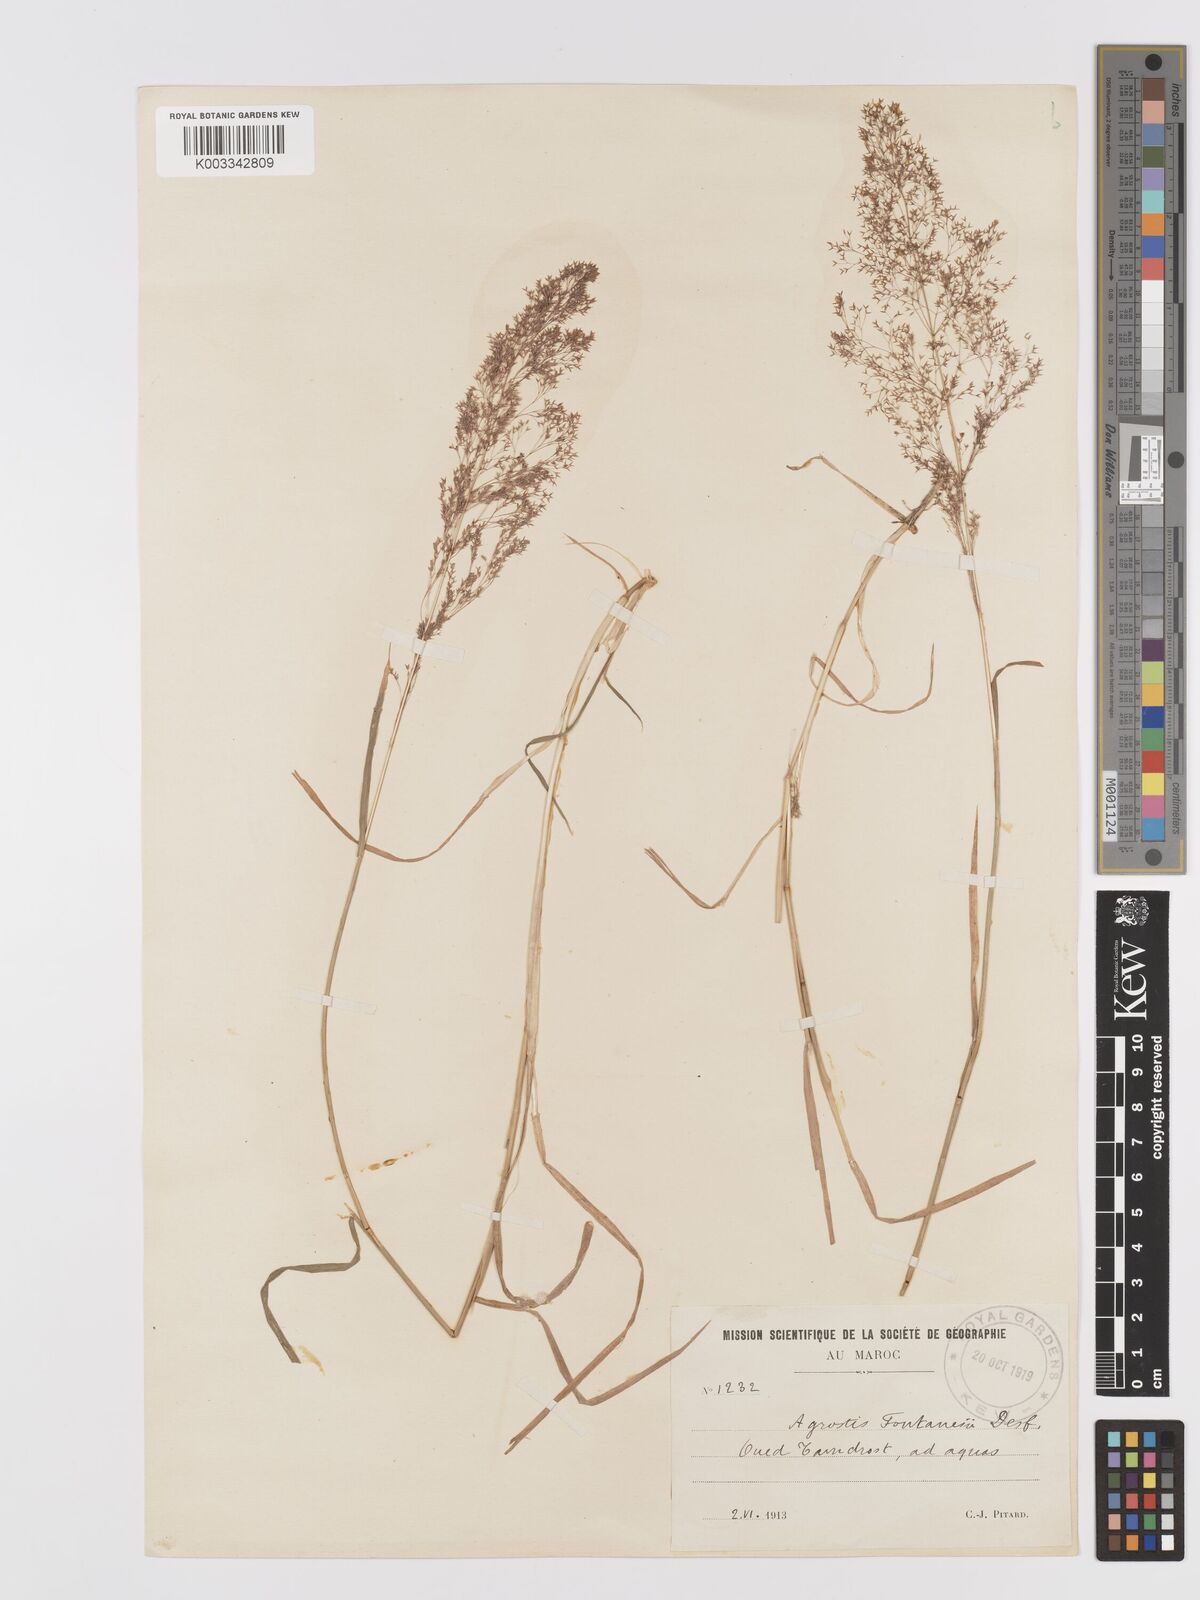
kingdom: Plantae
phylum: Tracheophyta
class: Liliopsida
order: Poales
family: Poaceae
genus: Agrostis
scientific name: Agrostis reuteri
